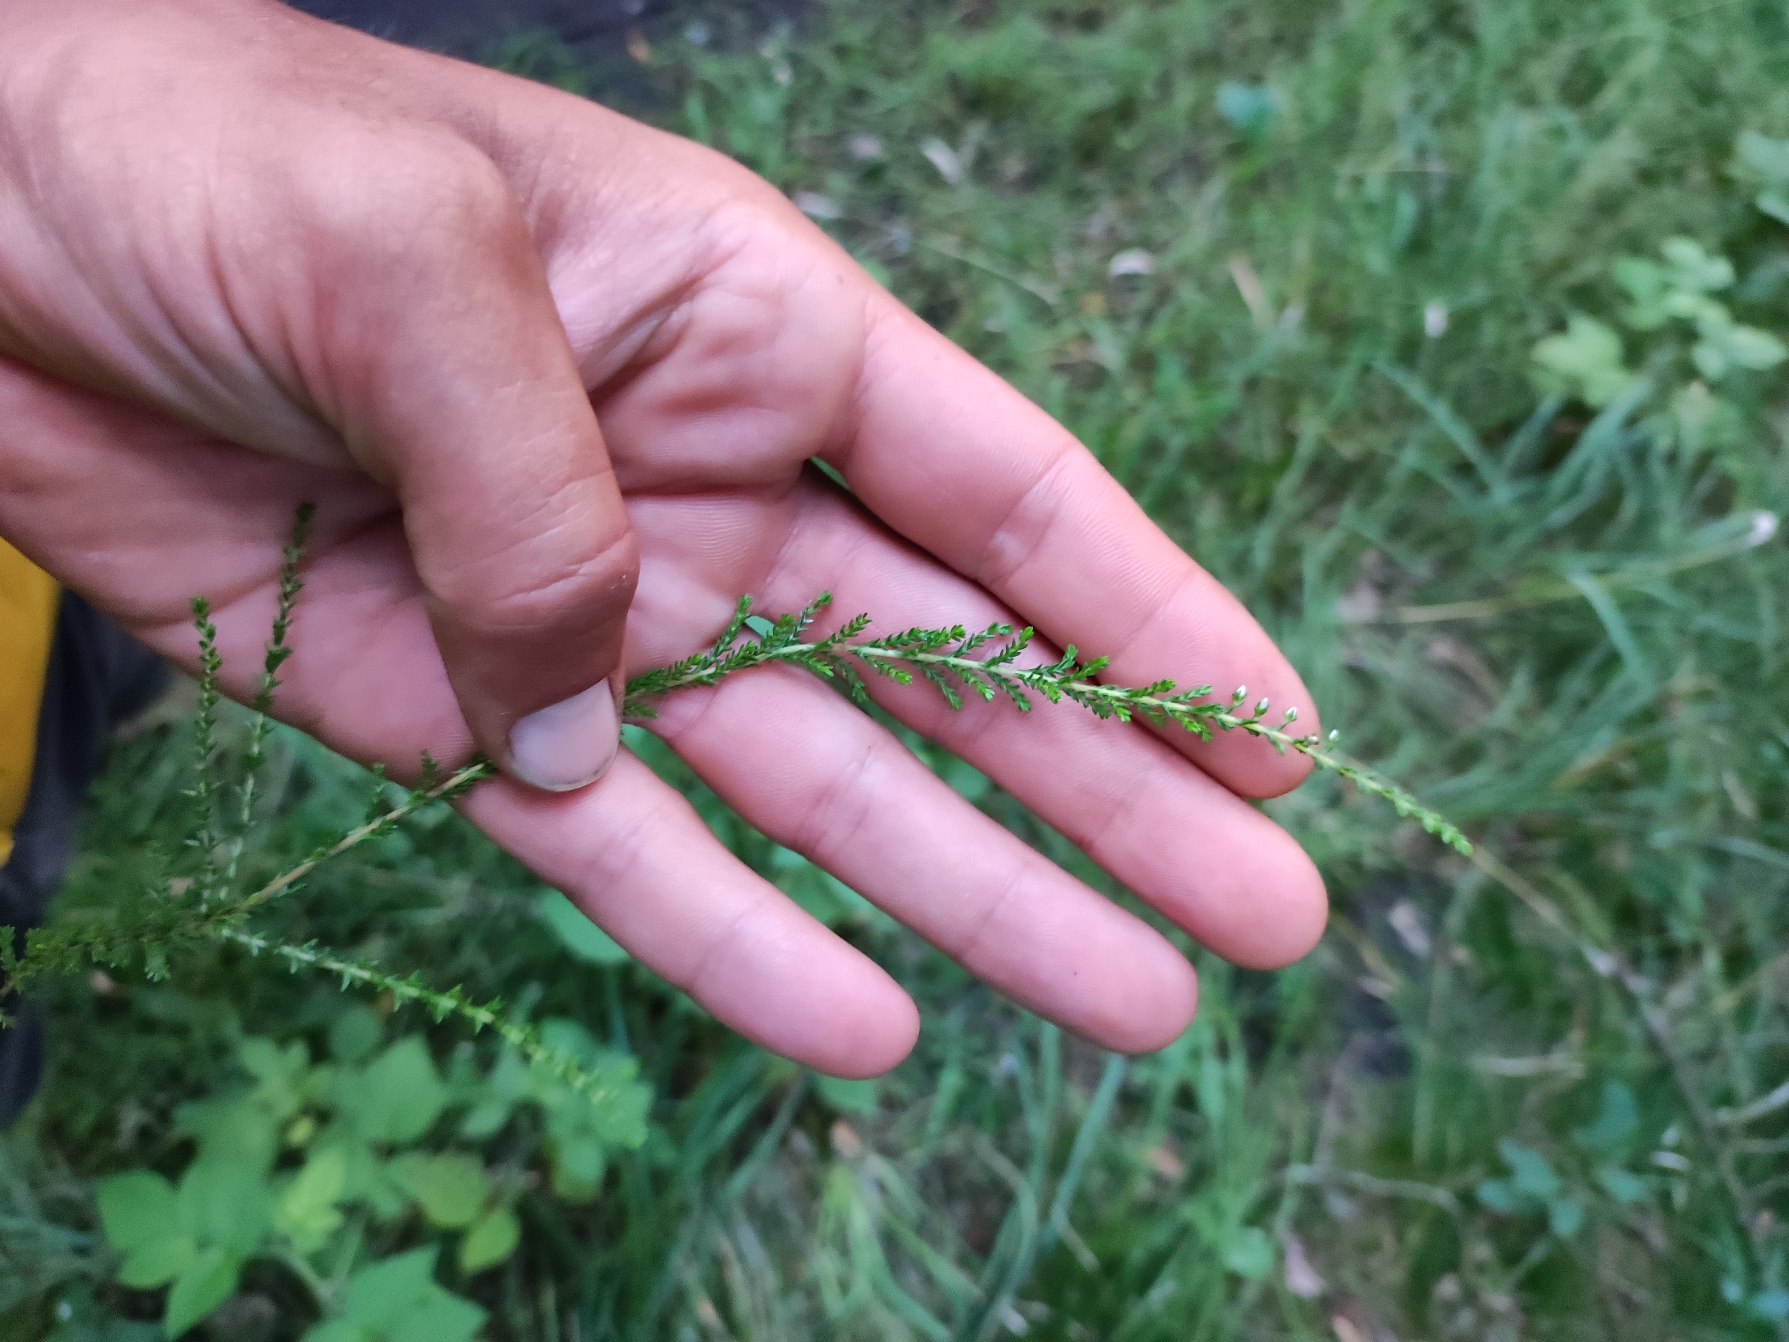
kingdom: Plantae
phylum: Tracheophyta
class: Magnoliopsida
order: Ericales
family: Ericaceae
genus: Calluna
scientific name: Calluna vulgaris
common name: Hedelyng
